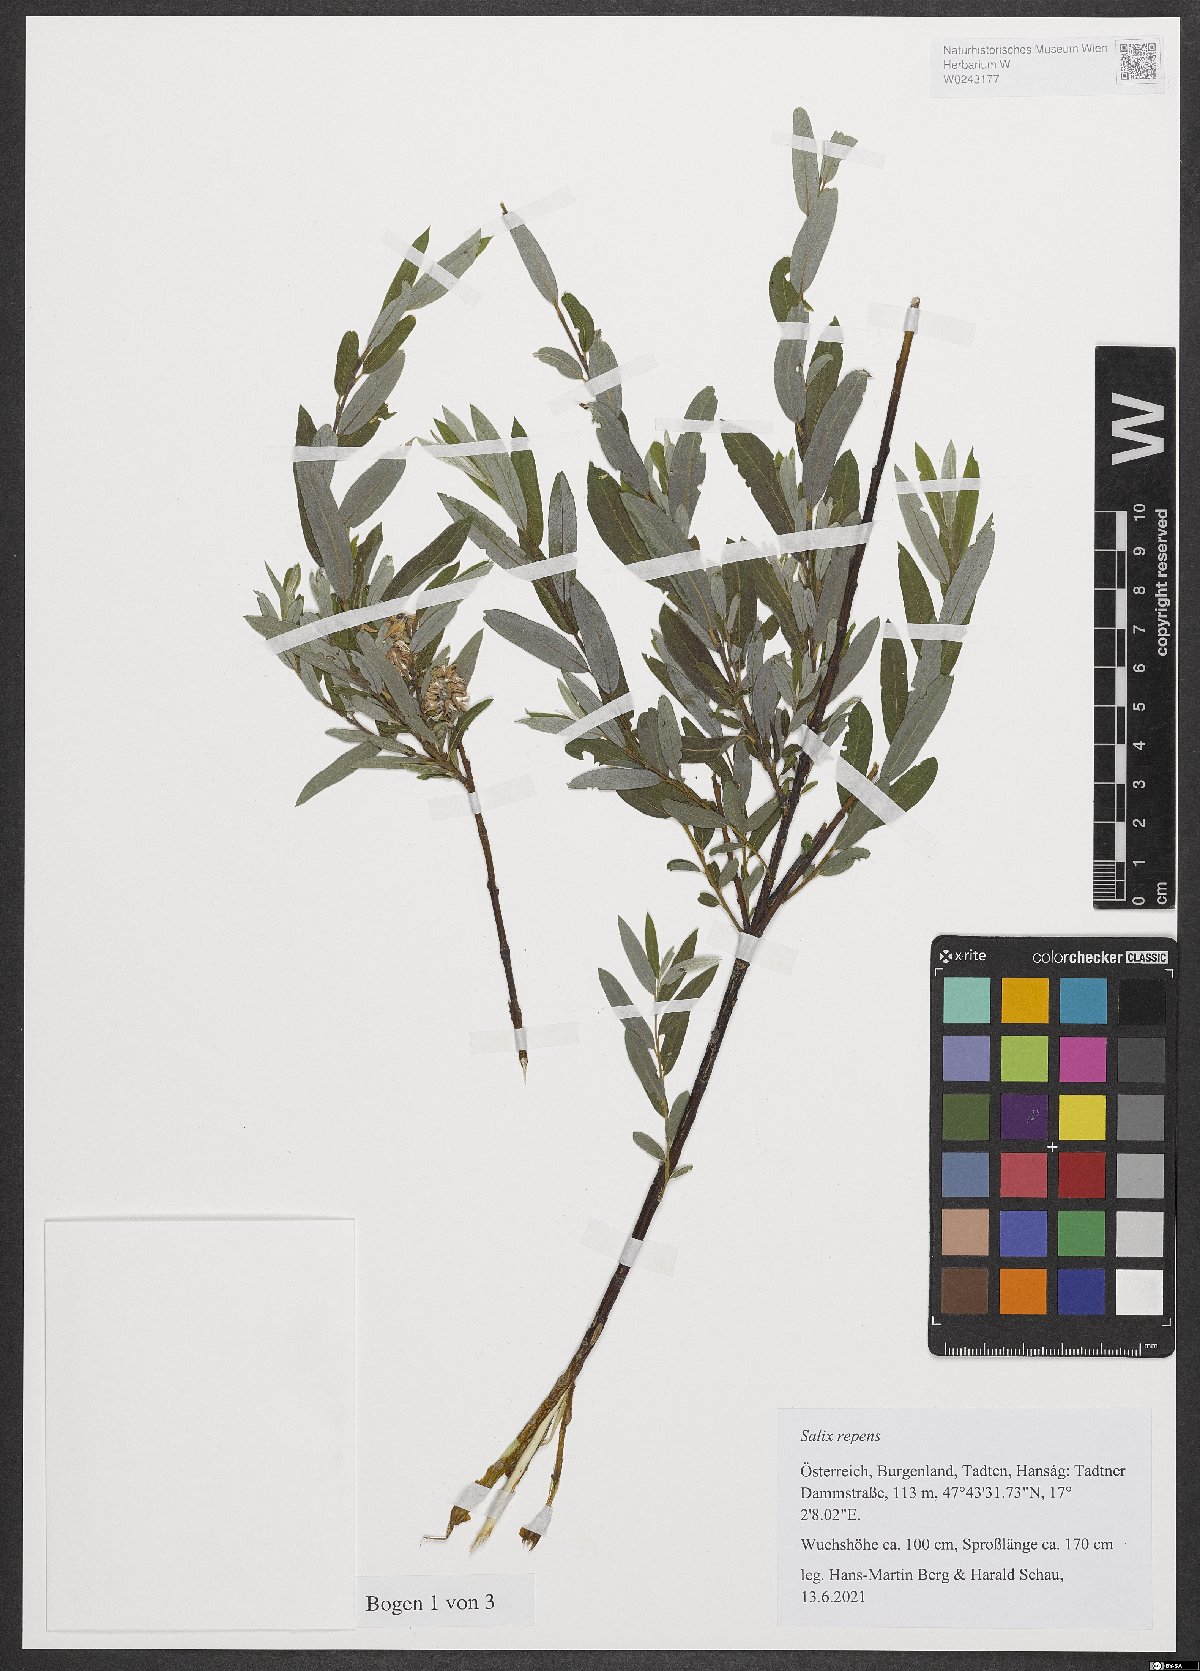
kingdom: Plantae
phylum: Tracheophyta
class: Magnoliopsida
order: Malpighiales
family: Salicaceae
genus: Salix
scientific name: Salix repens
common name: Creeping willow
